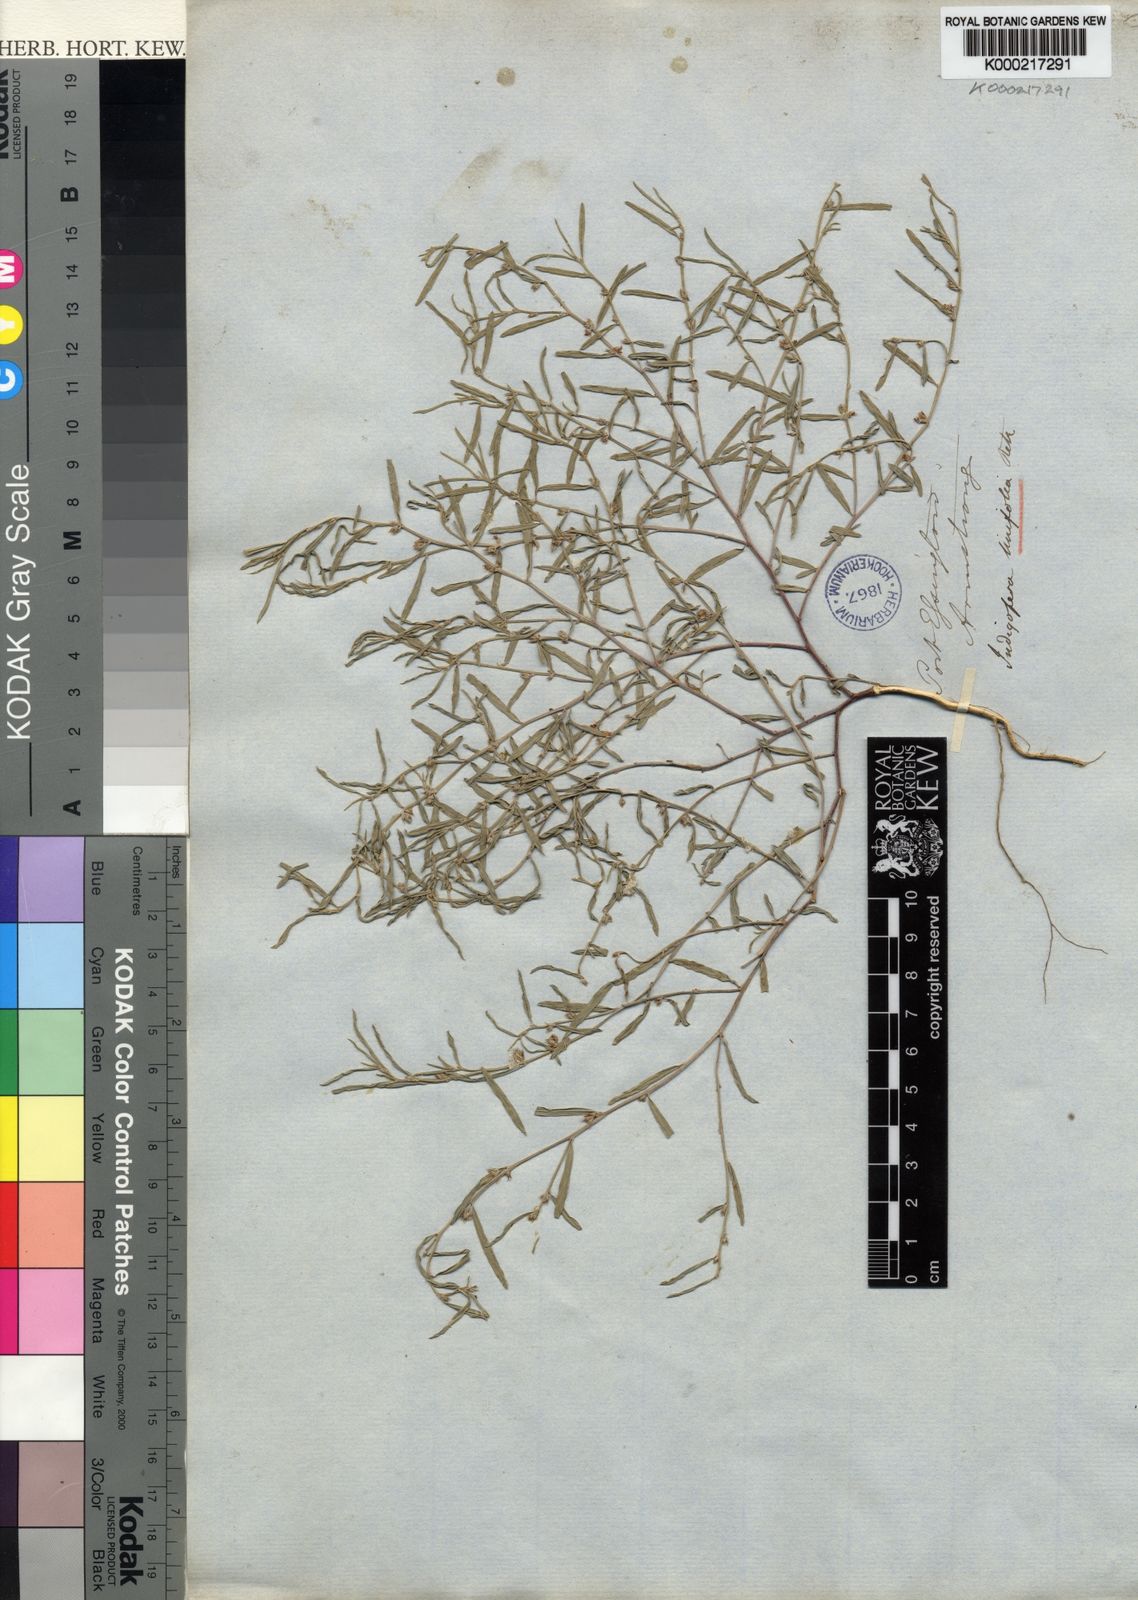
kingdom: Plantae
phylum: Tracheophyta
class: Magnoliopsida
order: Fabales
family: Fabaceae
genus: Indigofera
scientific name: Indigofera linifolia
